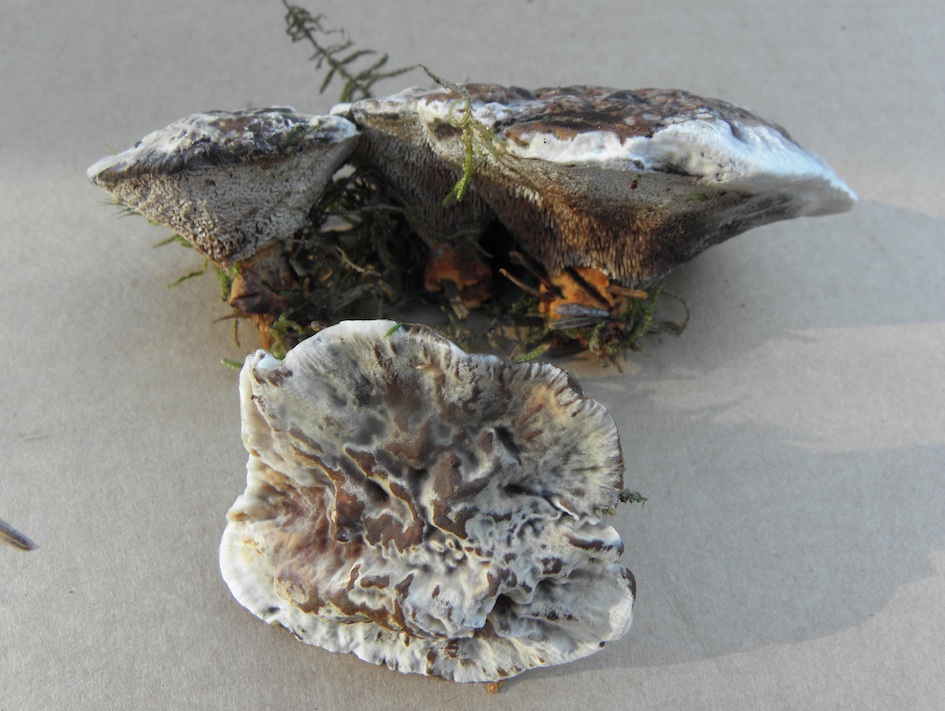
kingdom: Fungi
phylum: Basidiomycota
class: Agaricomycetes
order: Thelephorales
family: Bankeraceae
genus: Hydnellum
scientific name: Hydnellum aurantiacum
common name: orange korkpigsvamp
